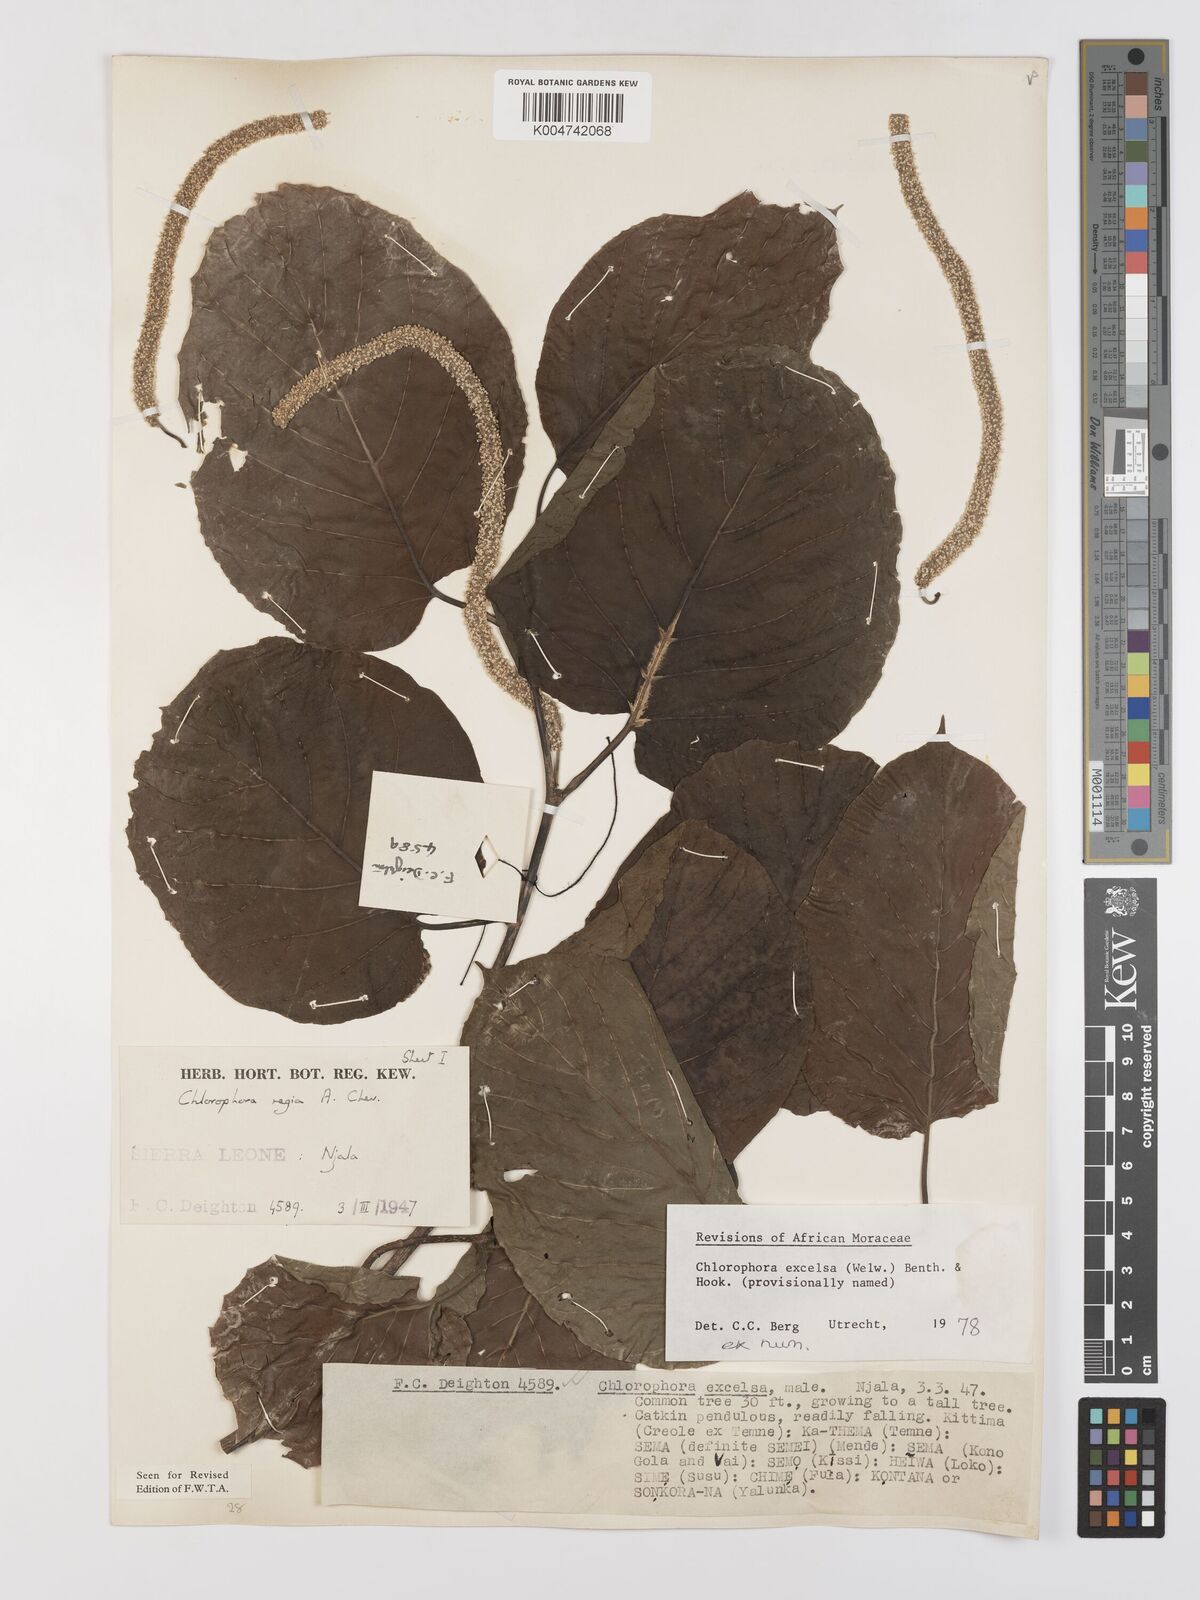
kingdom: Plantae
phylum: Tracheophyta
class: Magnoliopsida
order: Rosales
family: Moraceae
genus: Milicia
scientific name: Milicia excelsa
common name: African teak
